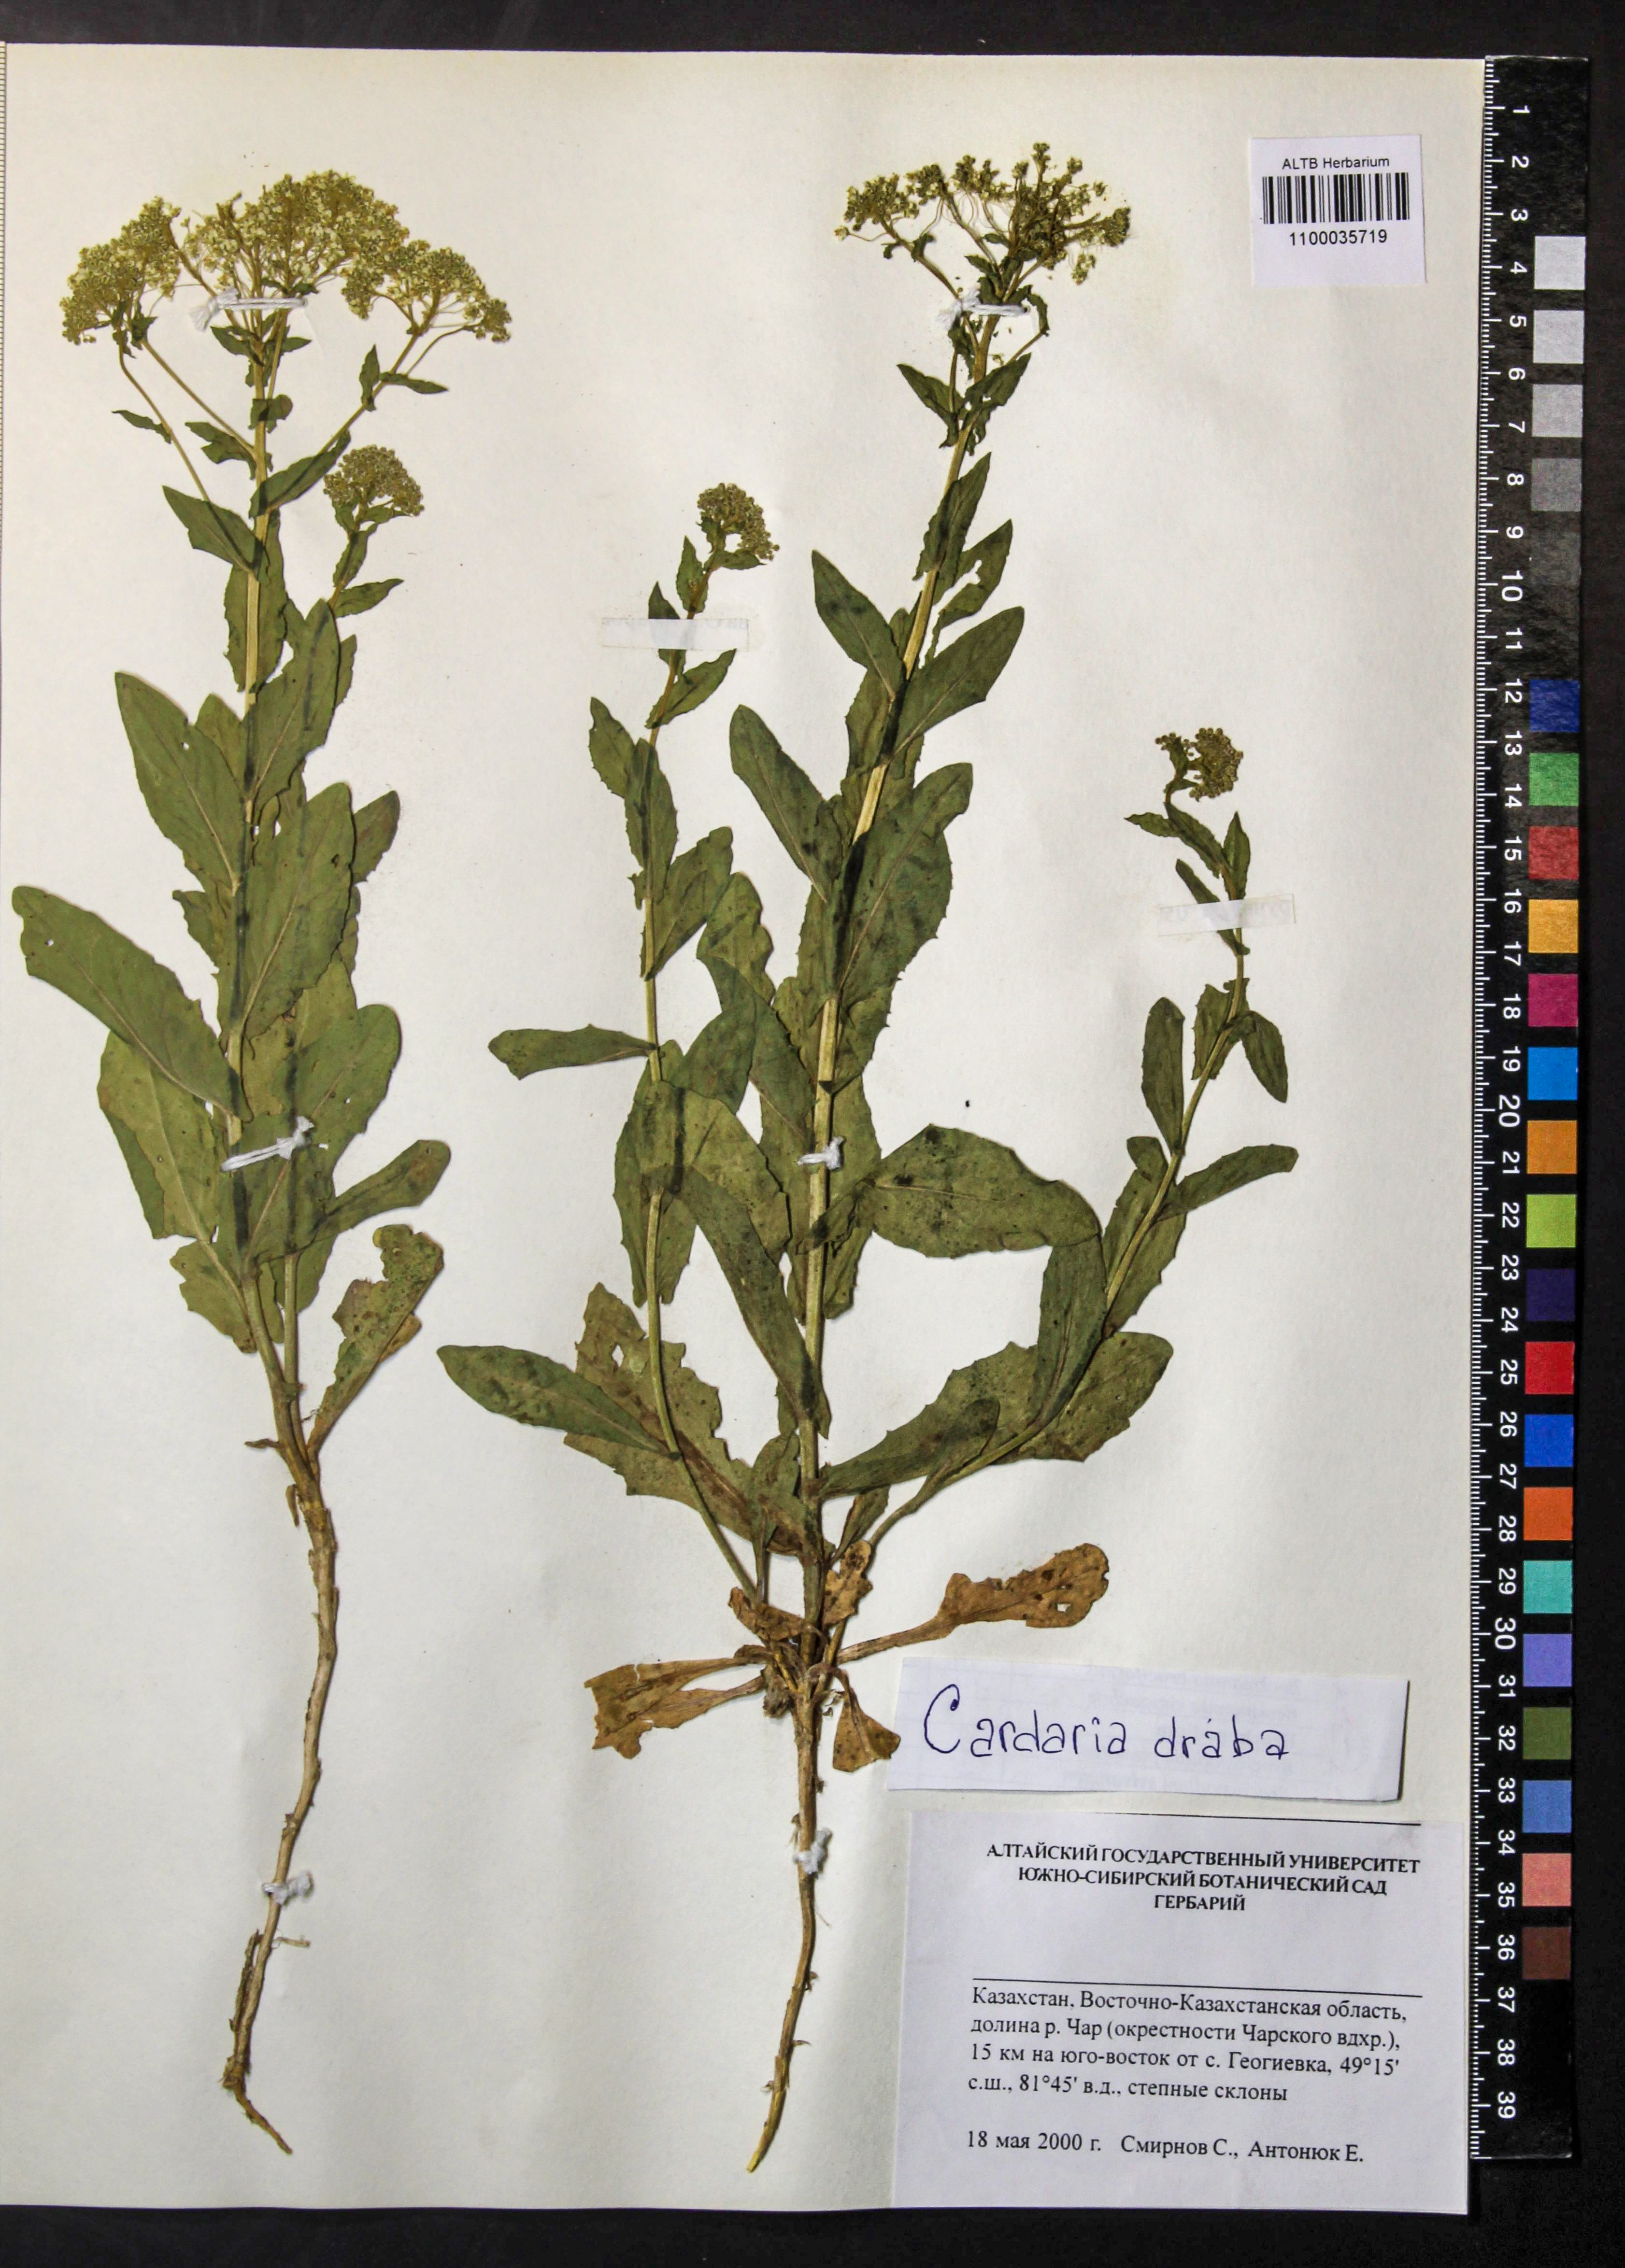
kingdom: Plantae
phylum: Tracheophyta
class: Magnoliopsida
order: Brassicales
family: Brassicaceae
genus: Lepidium
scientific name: Lepidium draba
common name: Hoary cress
